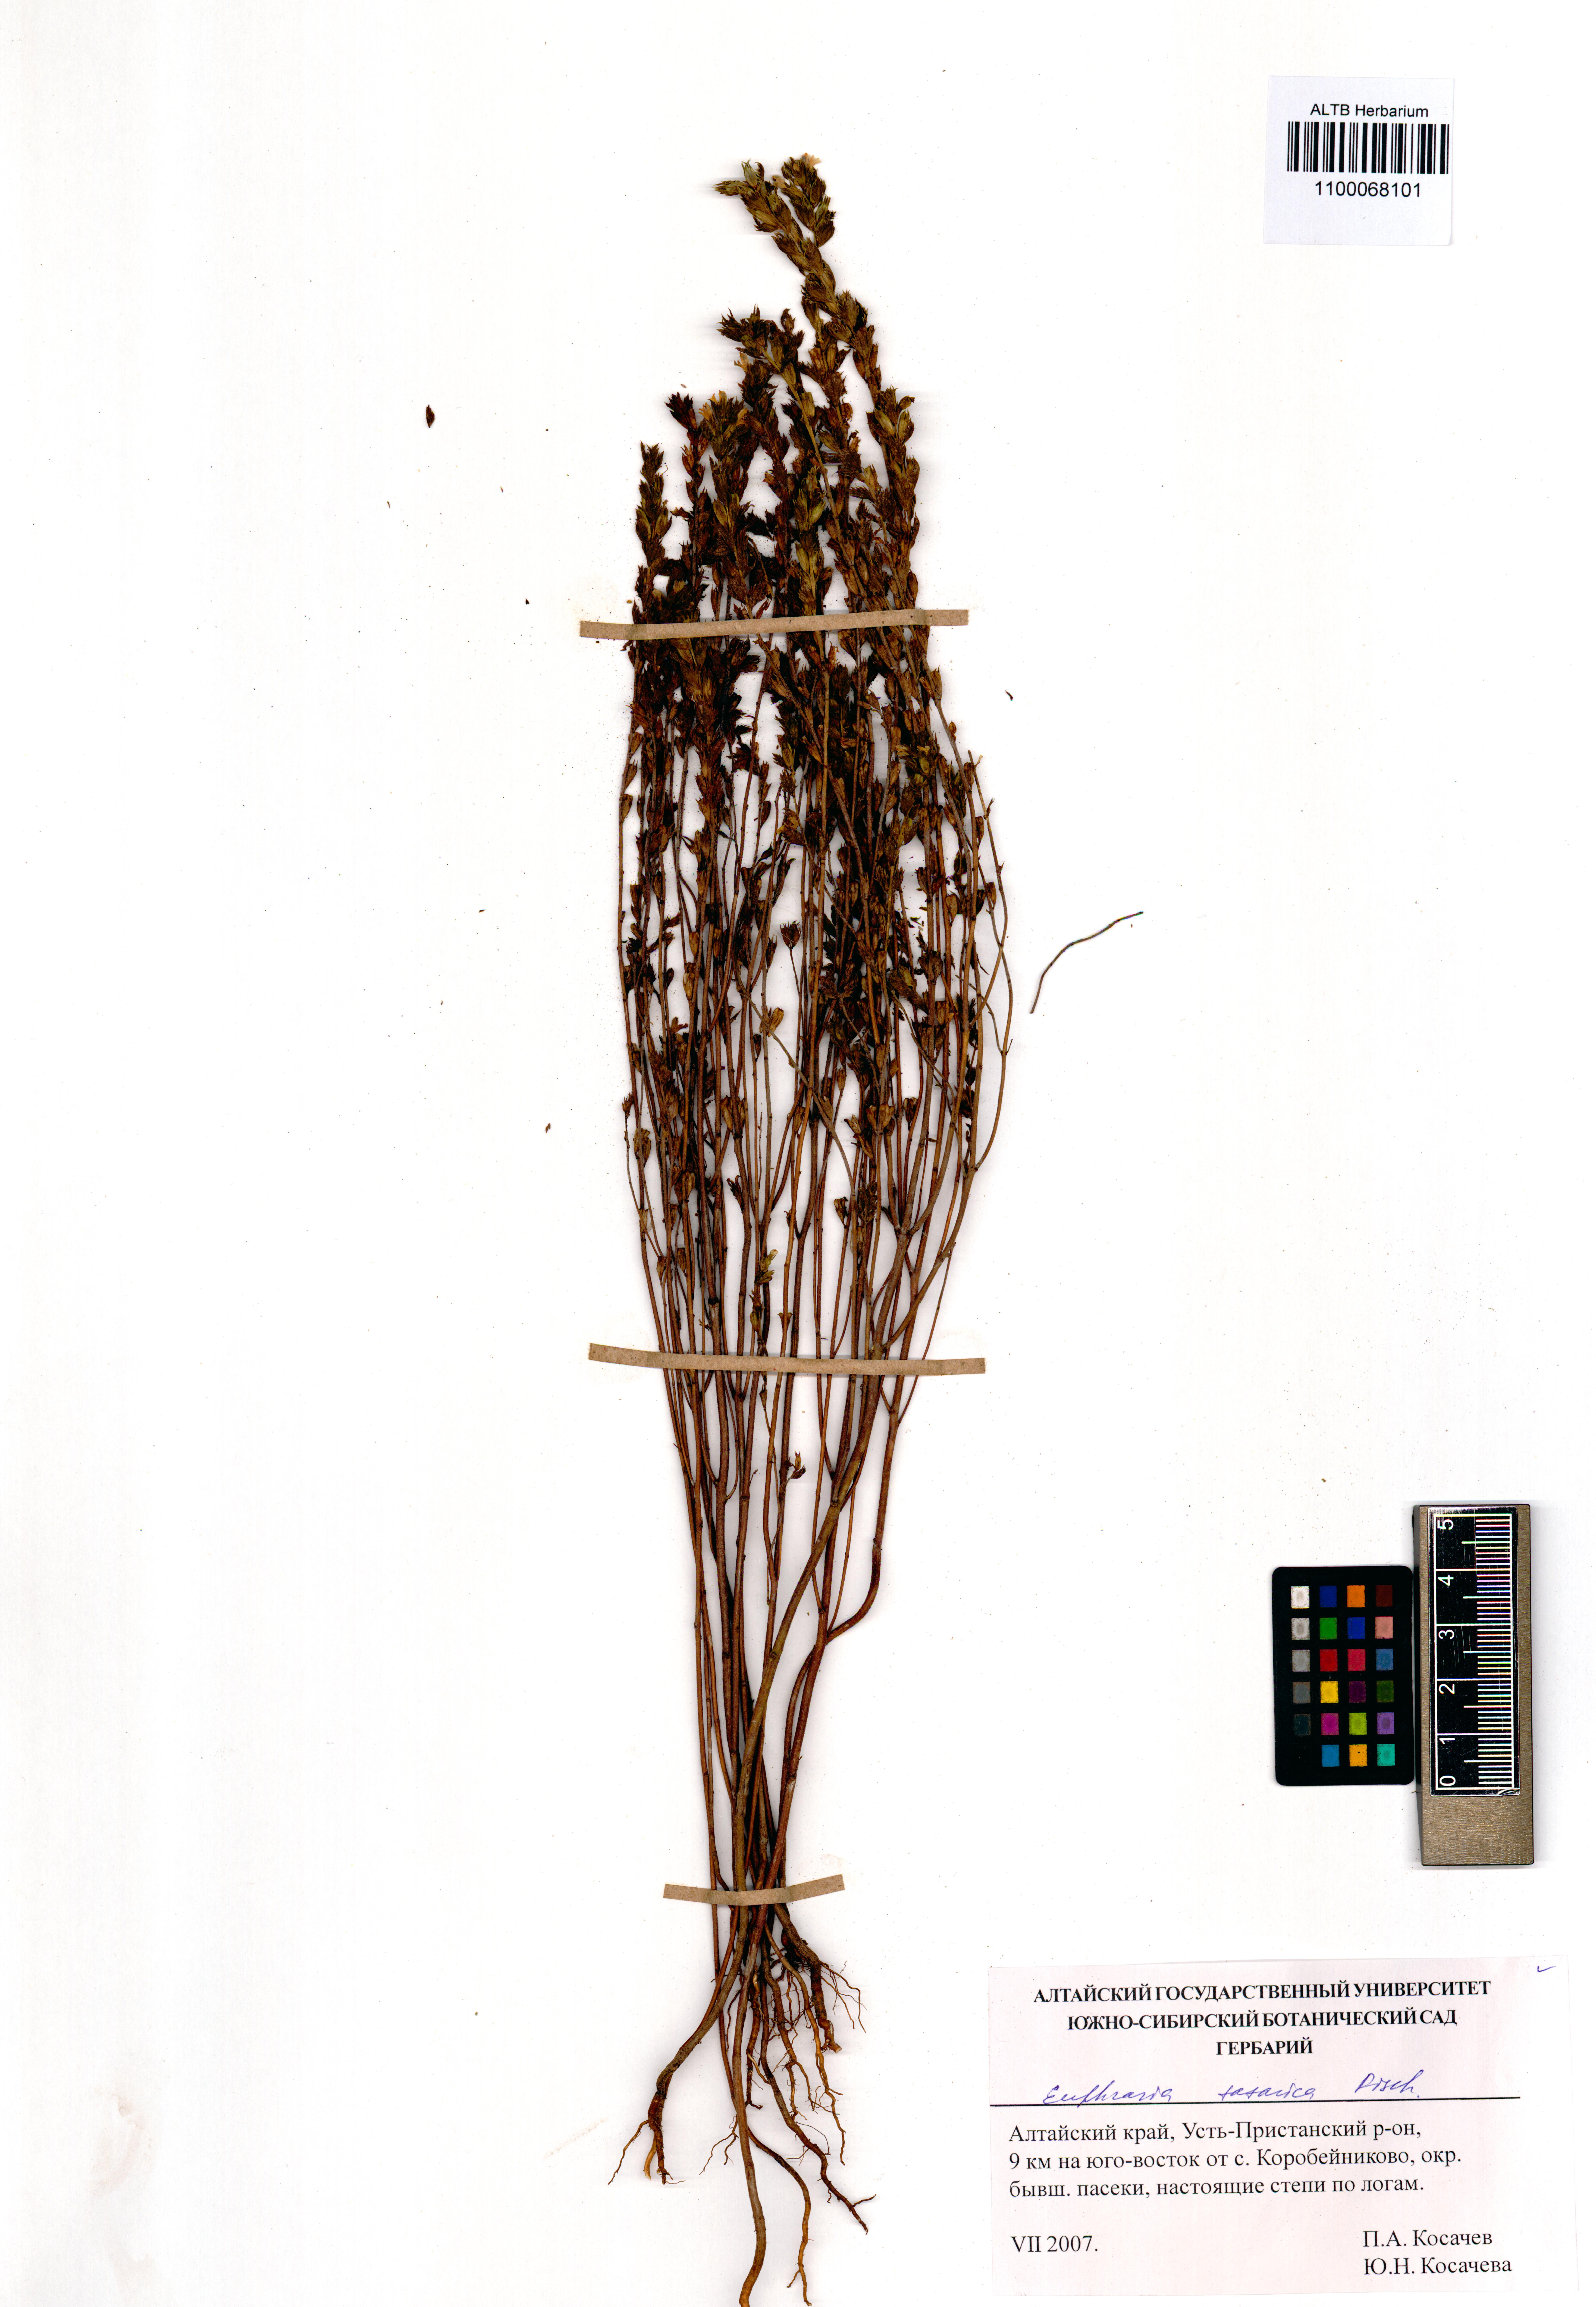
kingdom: Plantae
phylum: Tracheophyta
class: Magnoliopsida
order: Lamiales
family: Orobanchaceae
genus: Euphrasia
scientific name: Euphrasia pectinata
